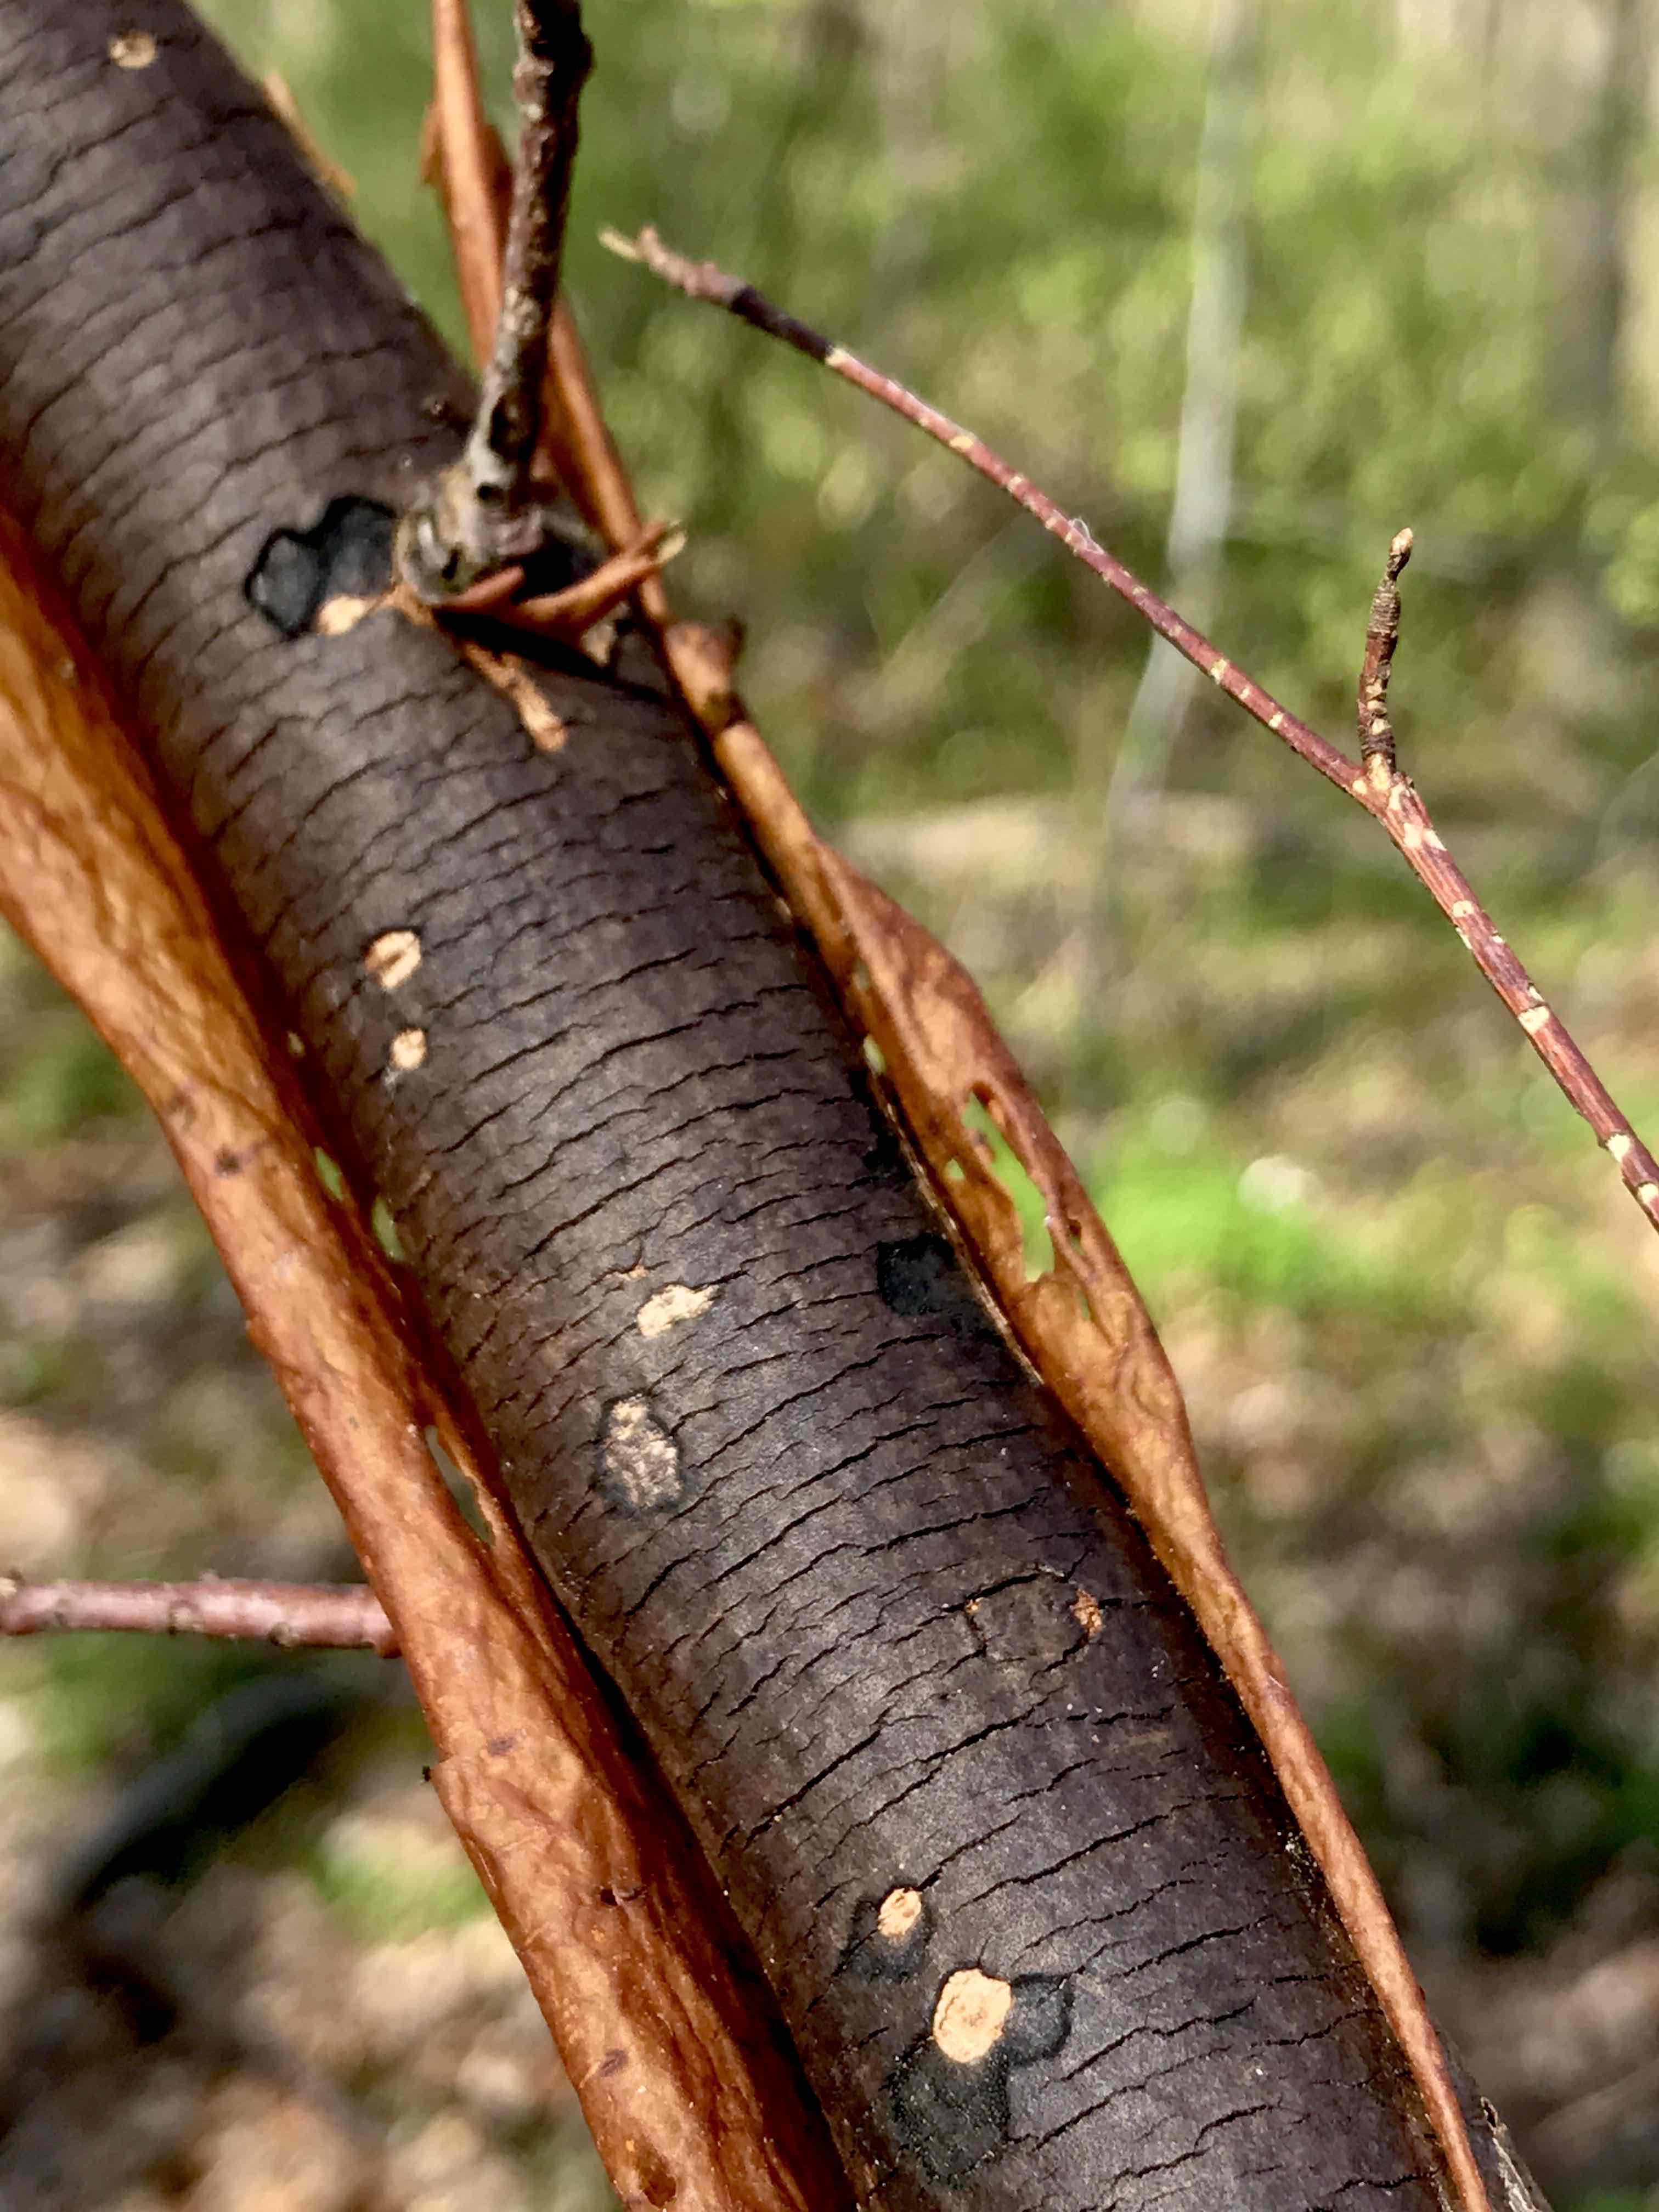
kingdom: Fungi
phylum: Ascomycota
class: Sordariomycetes
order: Xylariales
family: Diatrypaceae
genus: Diatrype
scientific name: Diatrype decorticata
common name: barksprænger-kulskorpe
